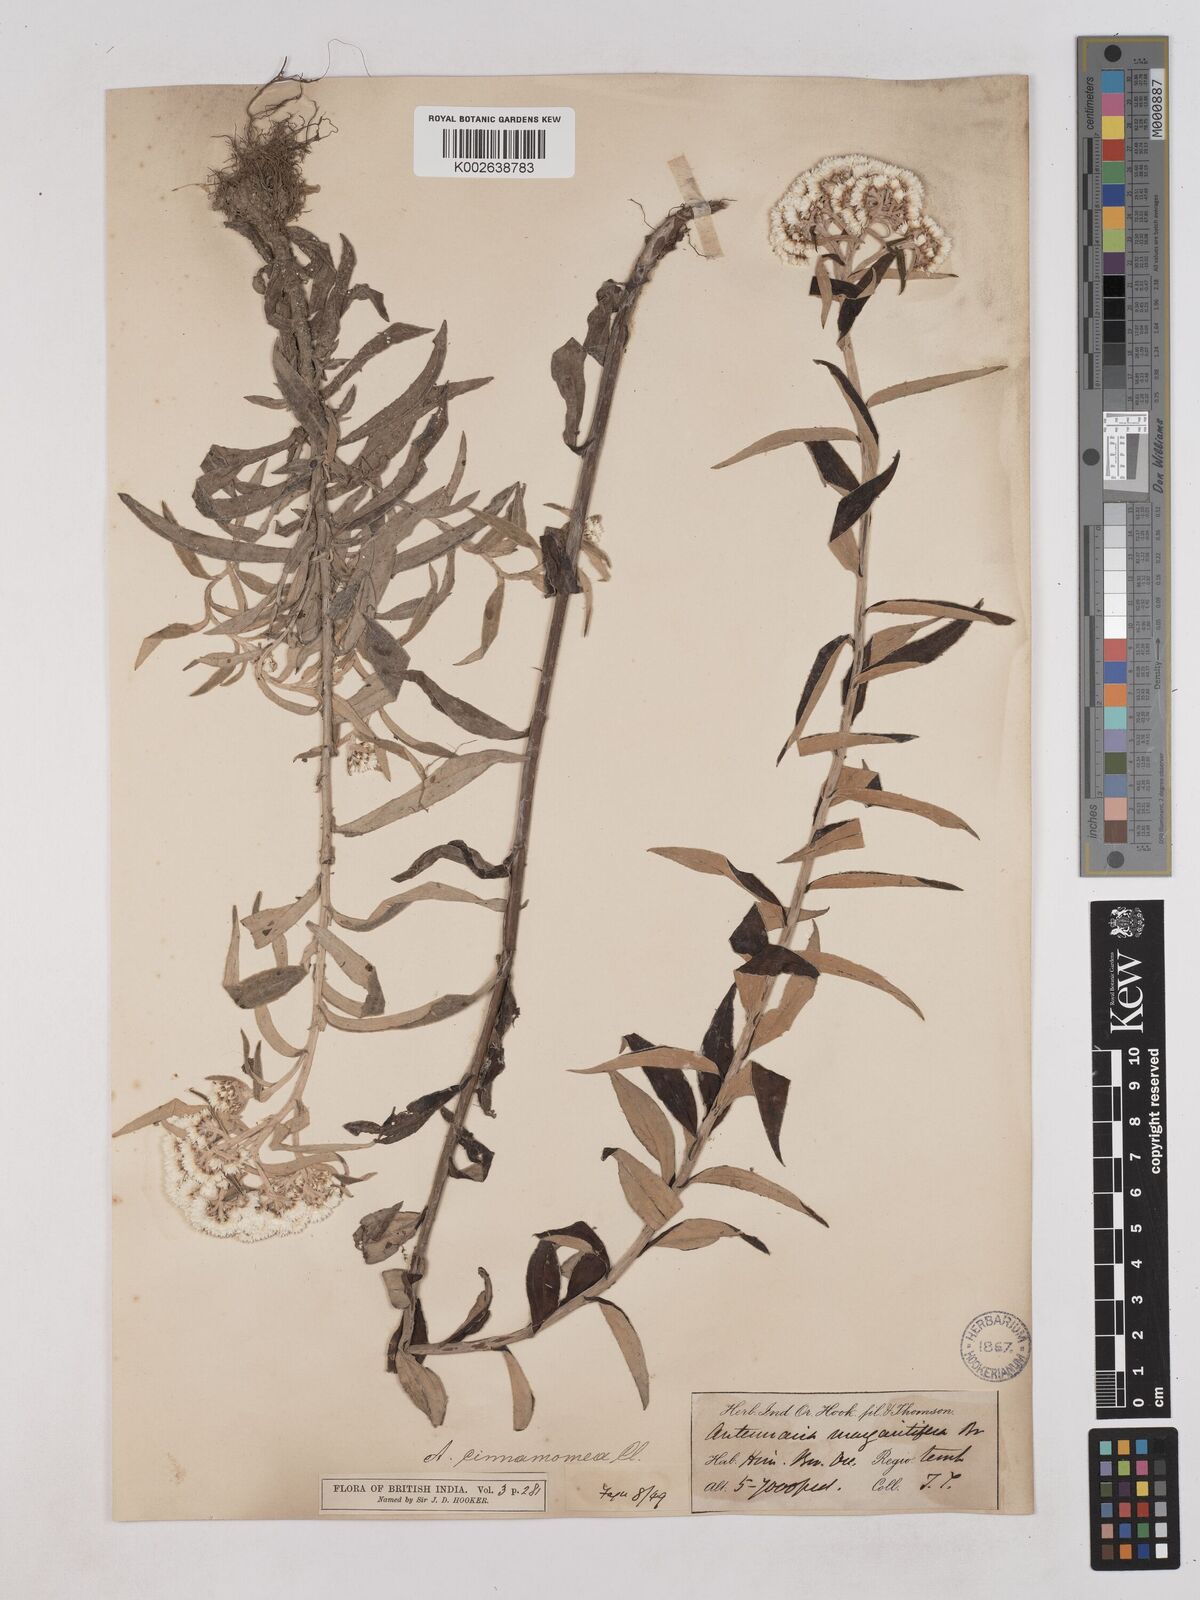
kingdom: Plantae
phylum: Tracheophyta
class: Magnoliopsida
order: Asterales
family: Asteraceae
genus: Anaphalis
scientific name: Anaphalis marcescens
